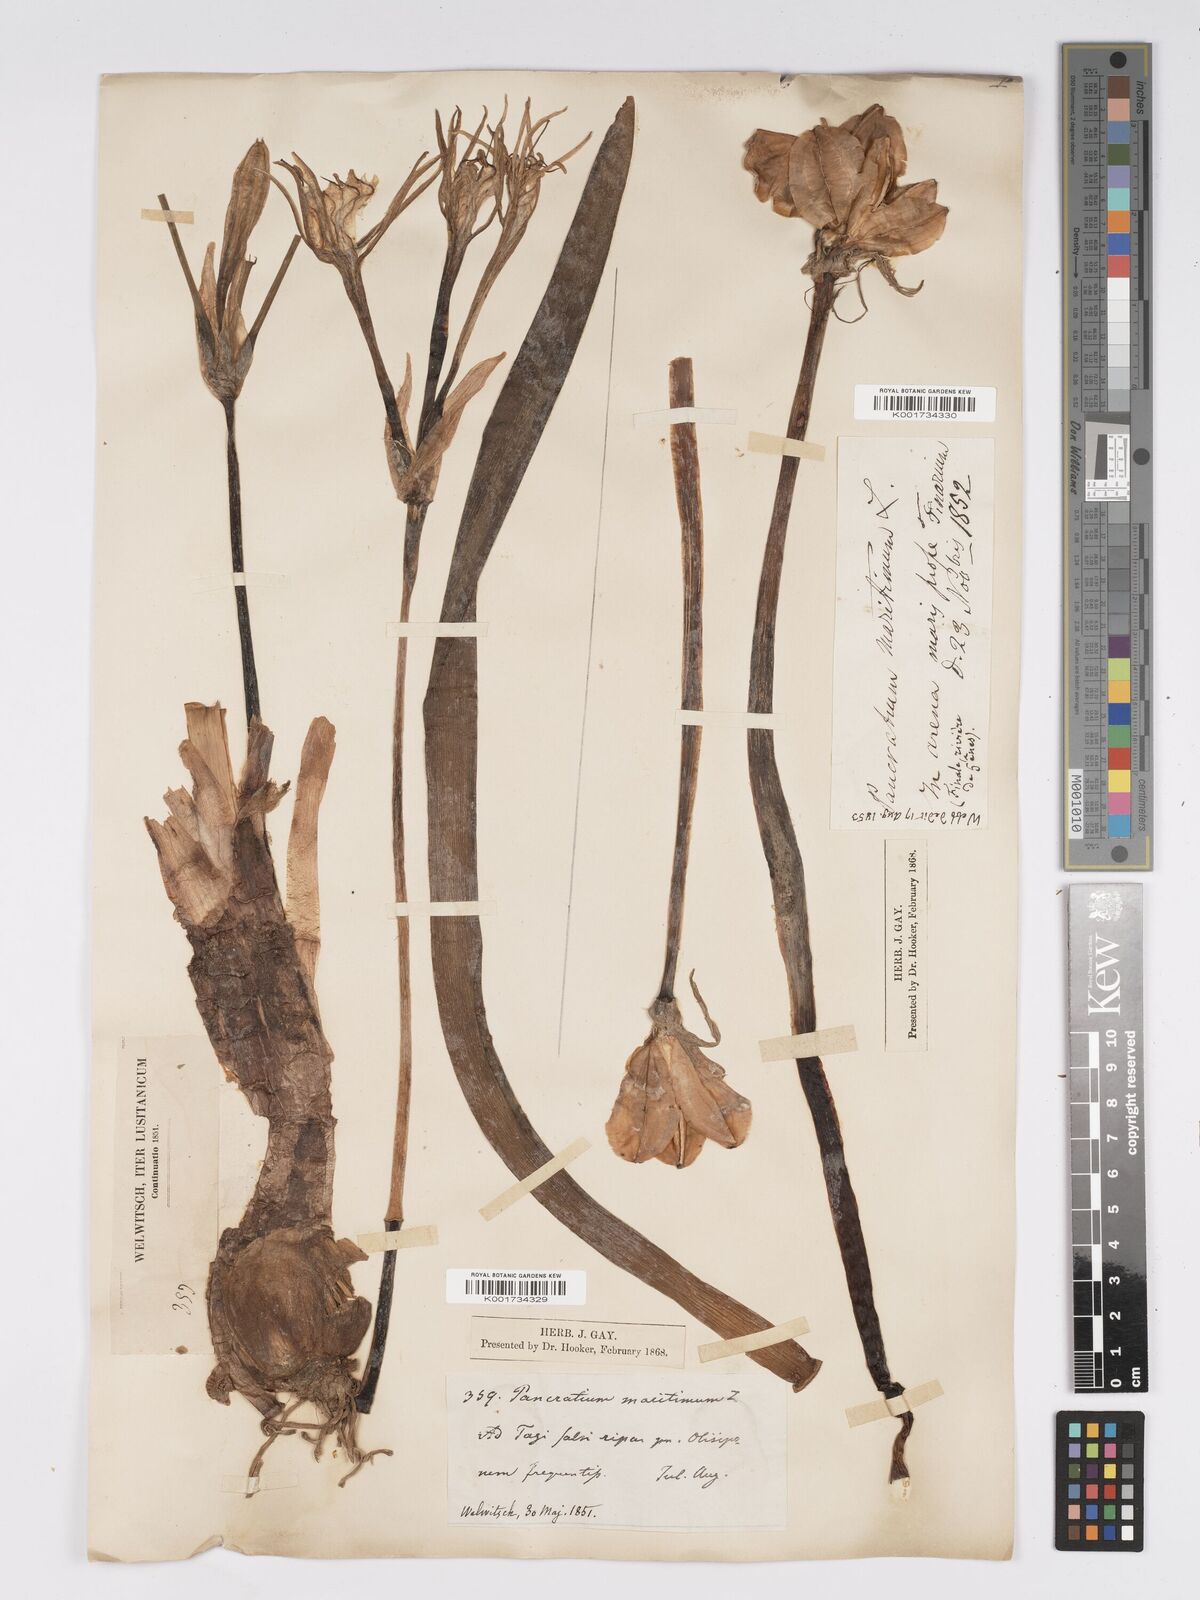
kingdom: Plantae
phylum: Tracheophyta
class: Liliopsida
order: Asparagales
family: Amaryllidaceae
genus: Pancratium
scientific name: Pancratium maritimum
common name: Sea-daffodil
